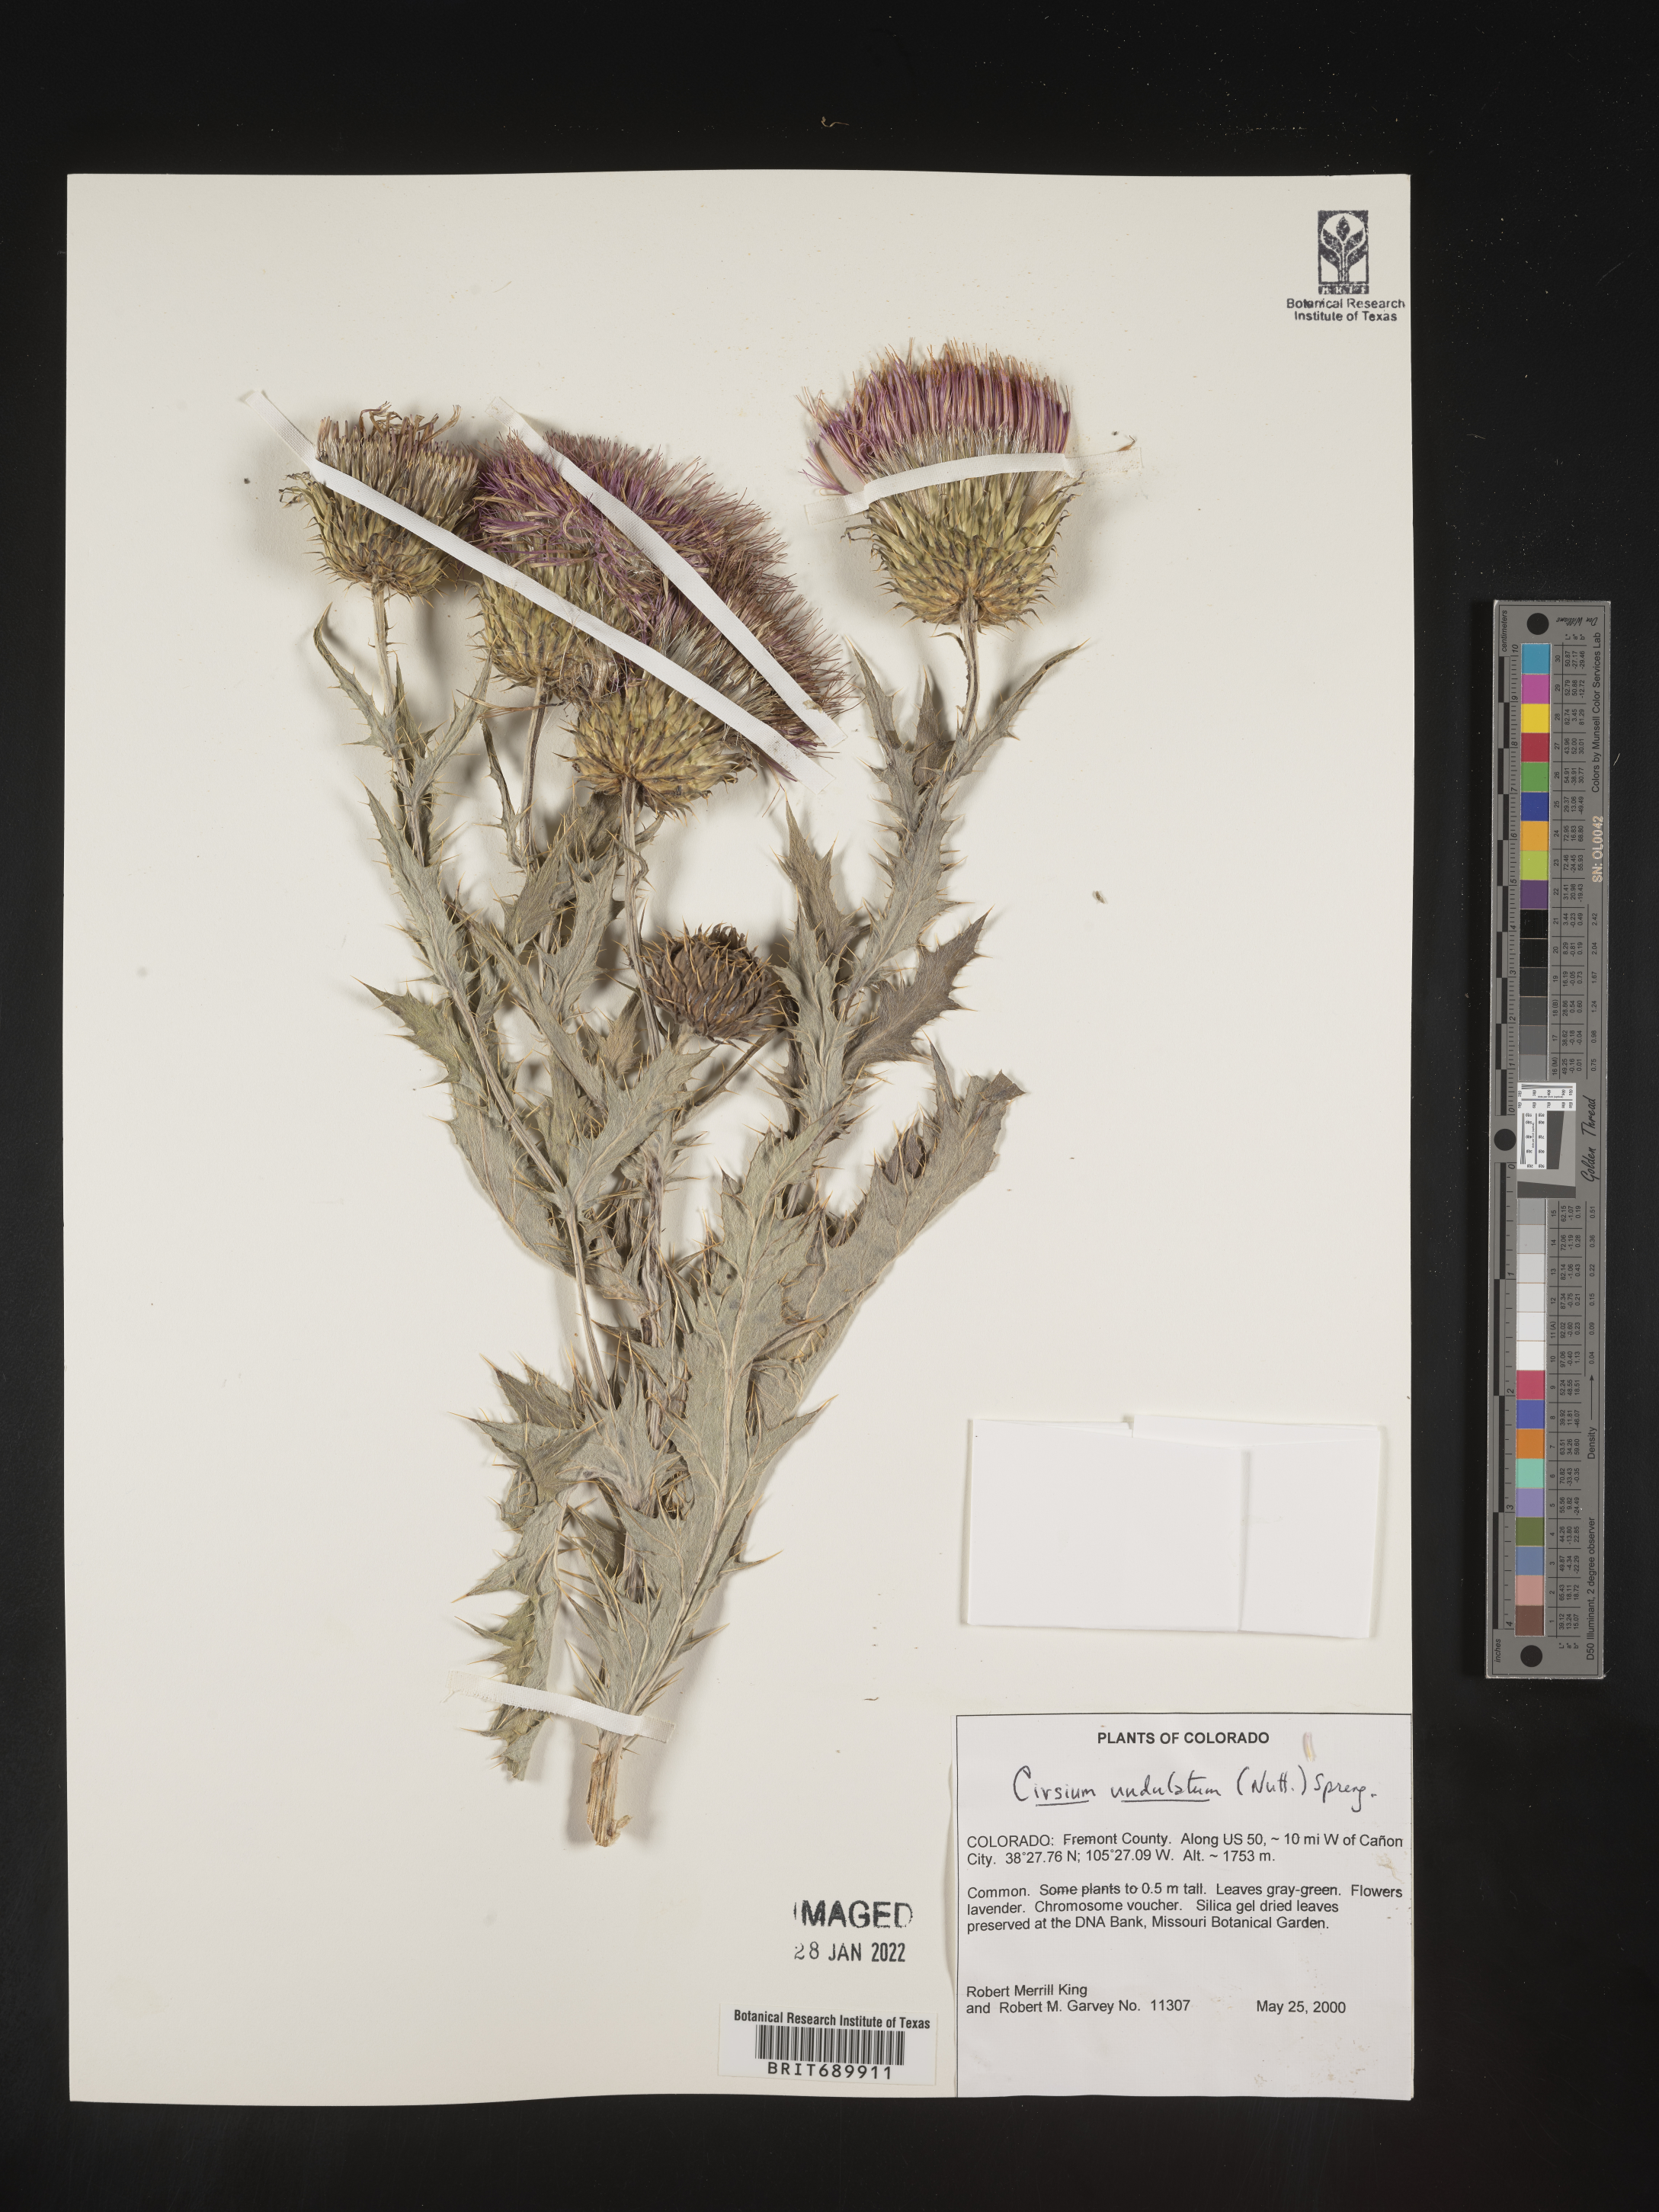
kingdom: Plantae
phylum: Tracheophyta
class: Magnoliopsida
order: Asterales
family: Asteraceae
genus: Cirsium
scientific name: Cirsium undulatum
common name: Pasture thistle
